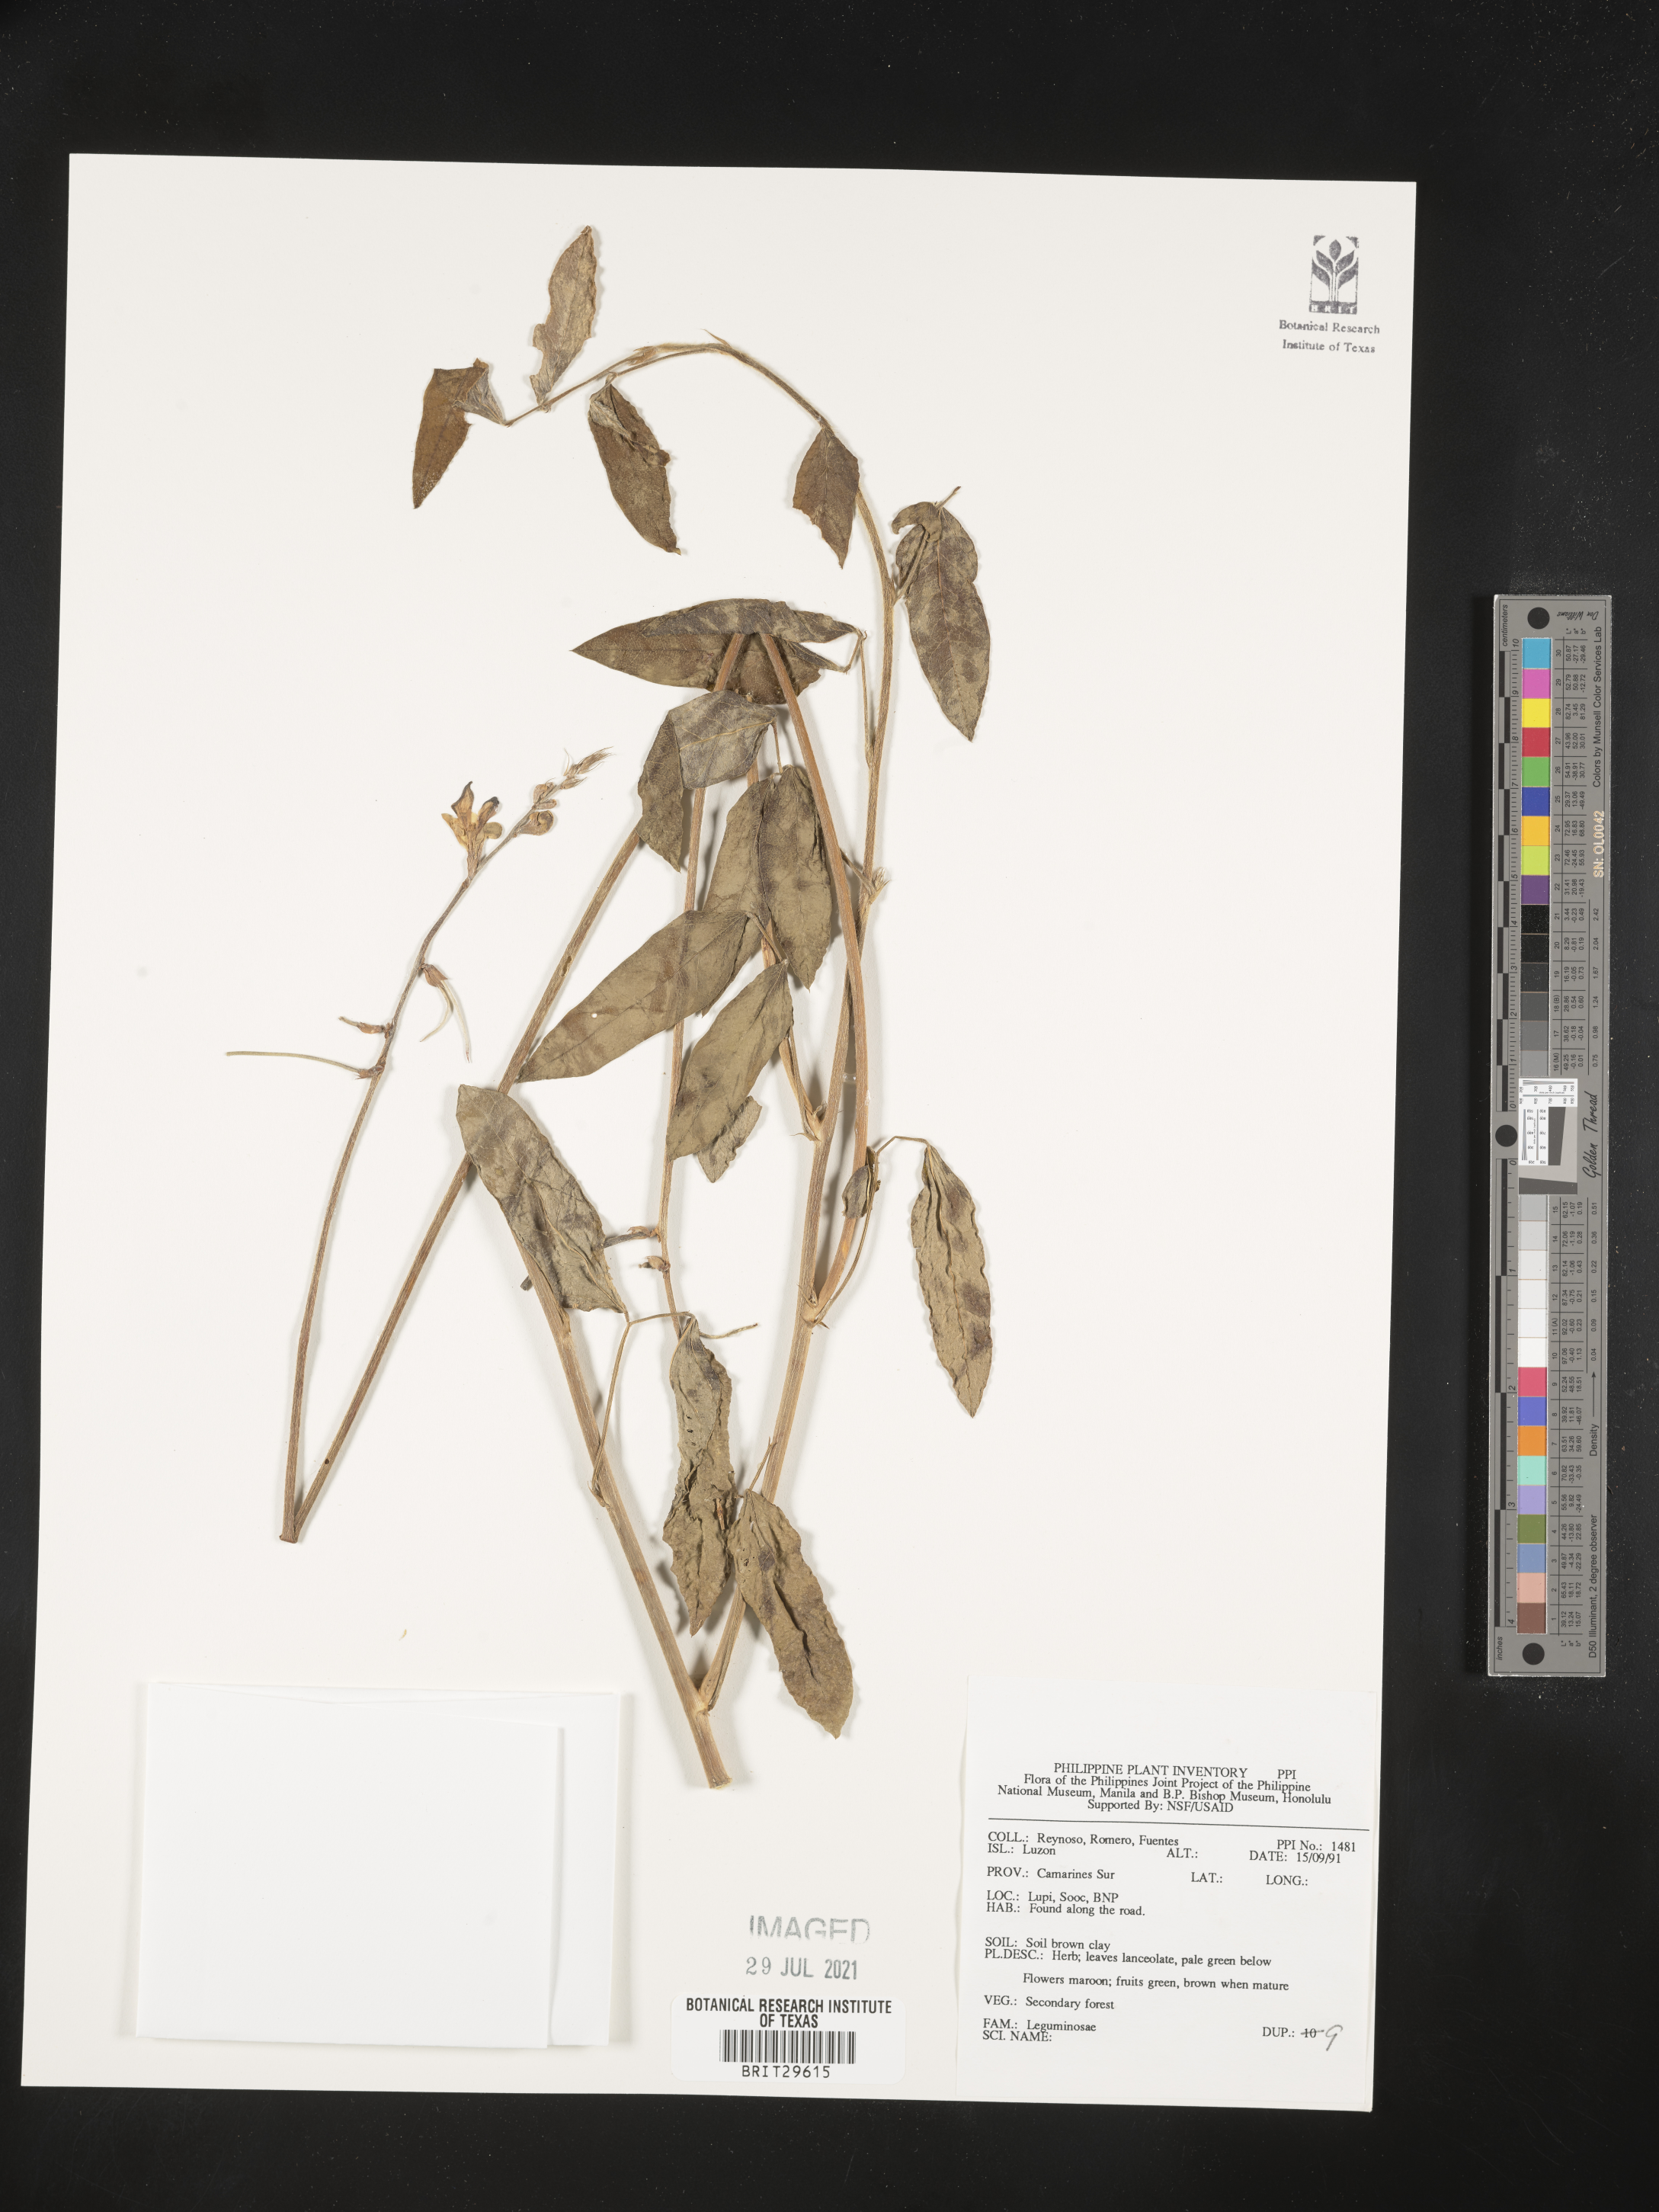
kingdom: Plantae
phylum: Tracheophyta
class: Magnoliopsida
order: Fabales
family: Fabaceae
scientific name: Fabaceae
